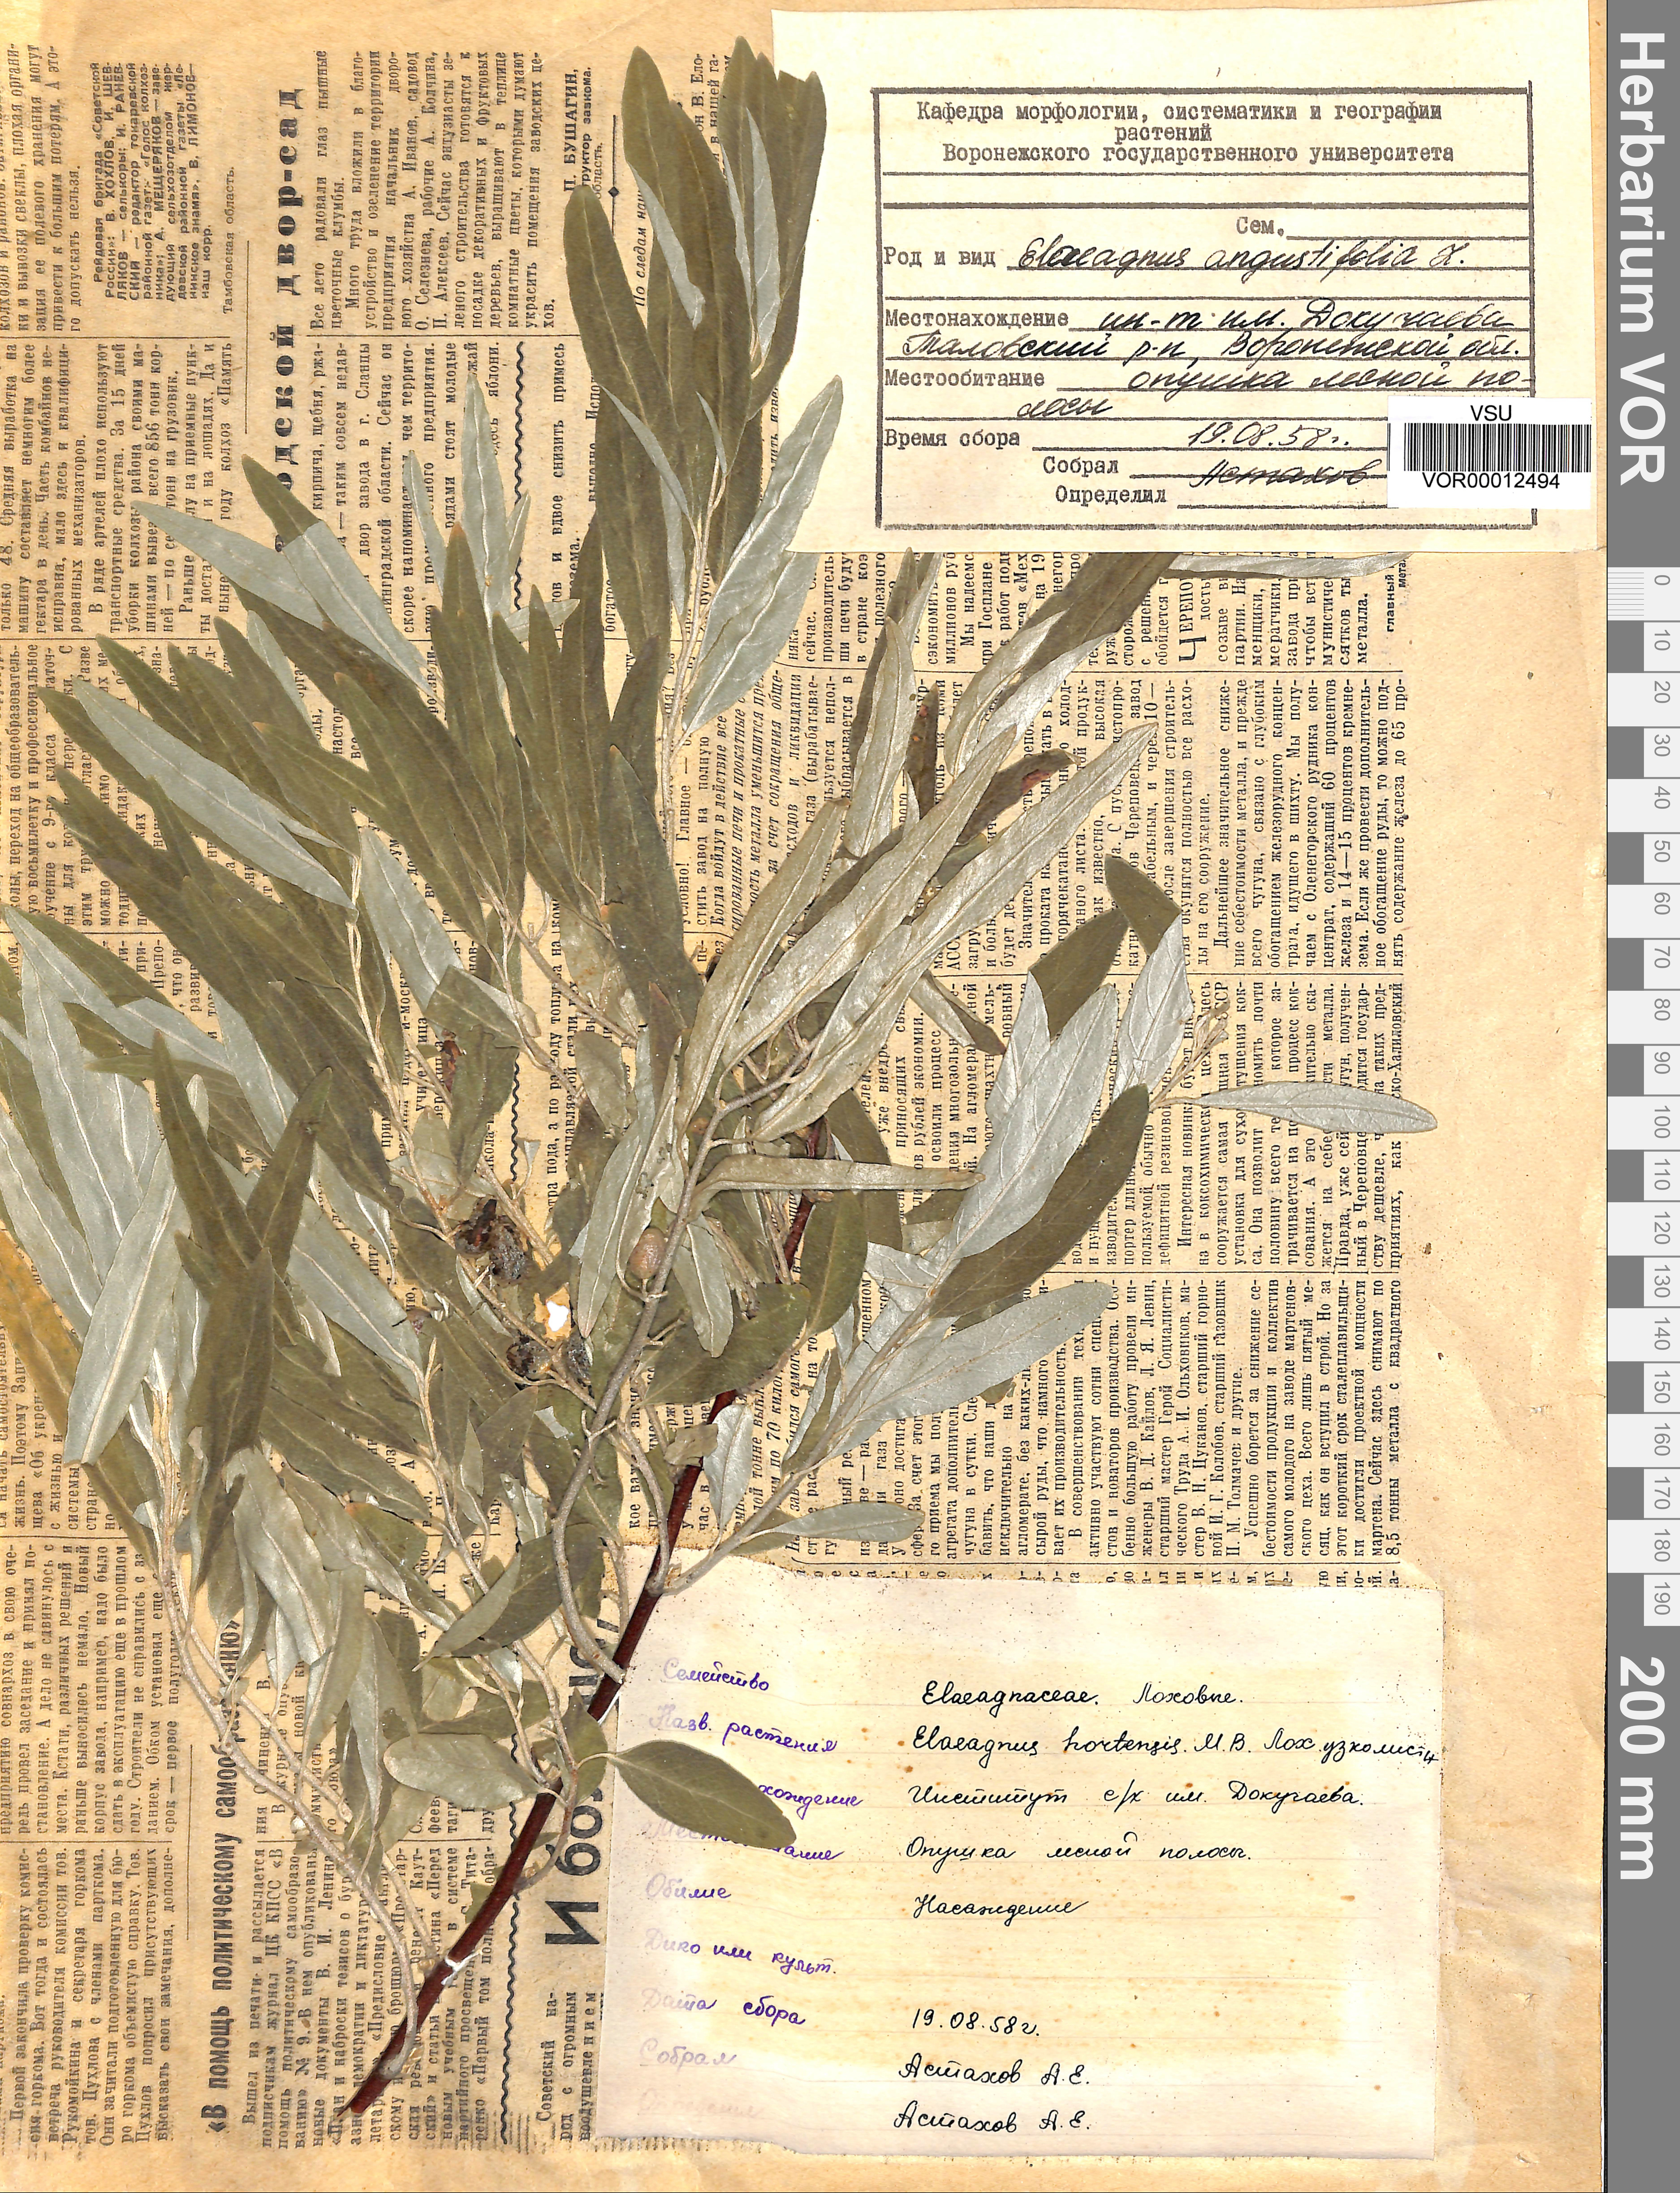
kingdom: Plantae
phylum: Tracheophyta
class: Magnoliopsida
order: Rosales
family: Elaeagnaceae
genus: Elaeagnus
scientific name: Elaeagnus angustifolia
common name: Russian olive
